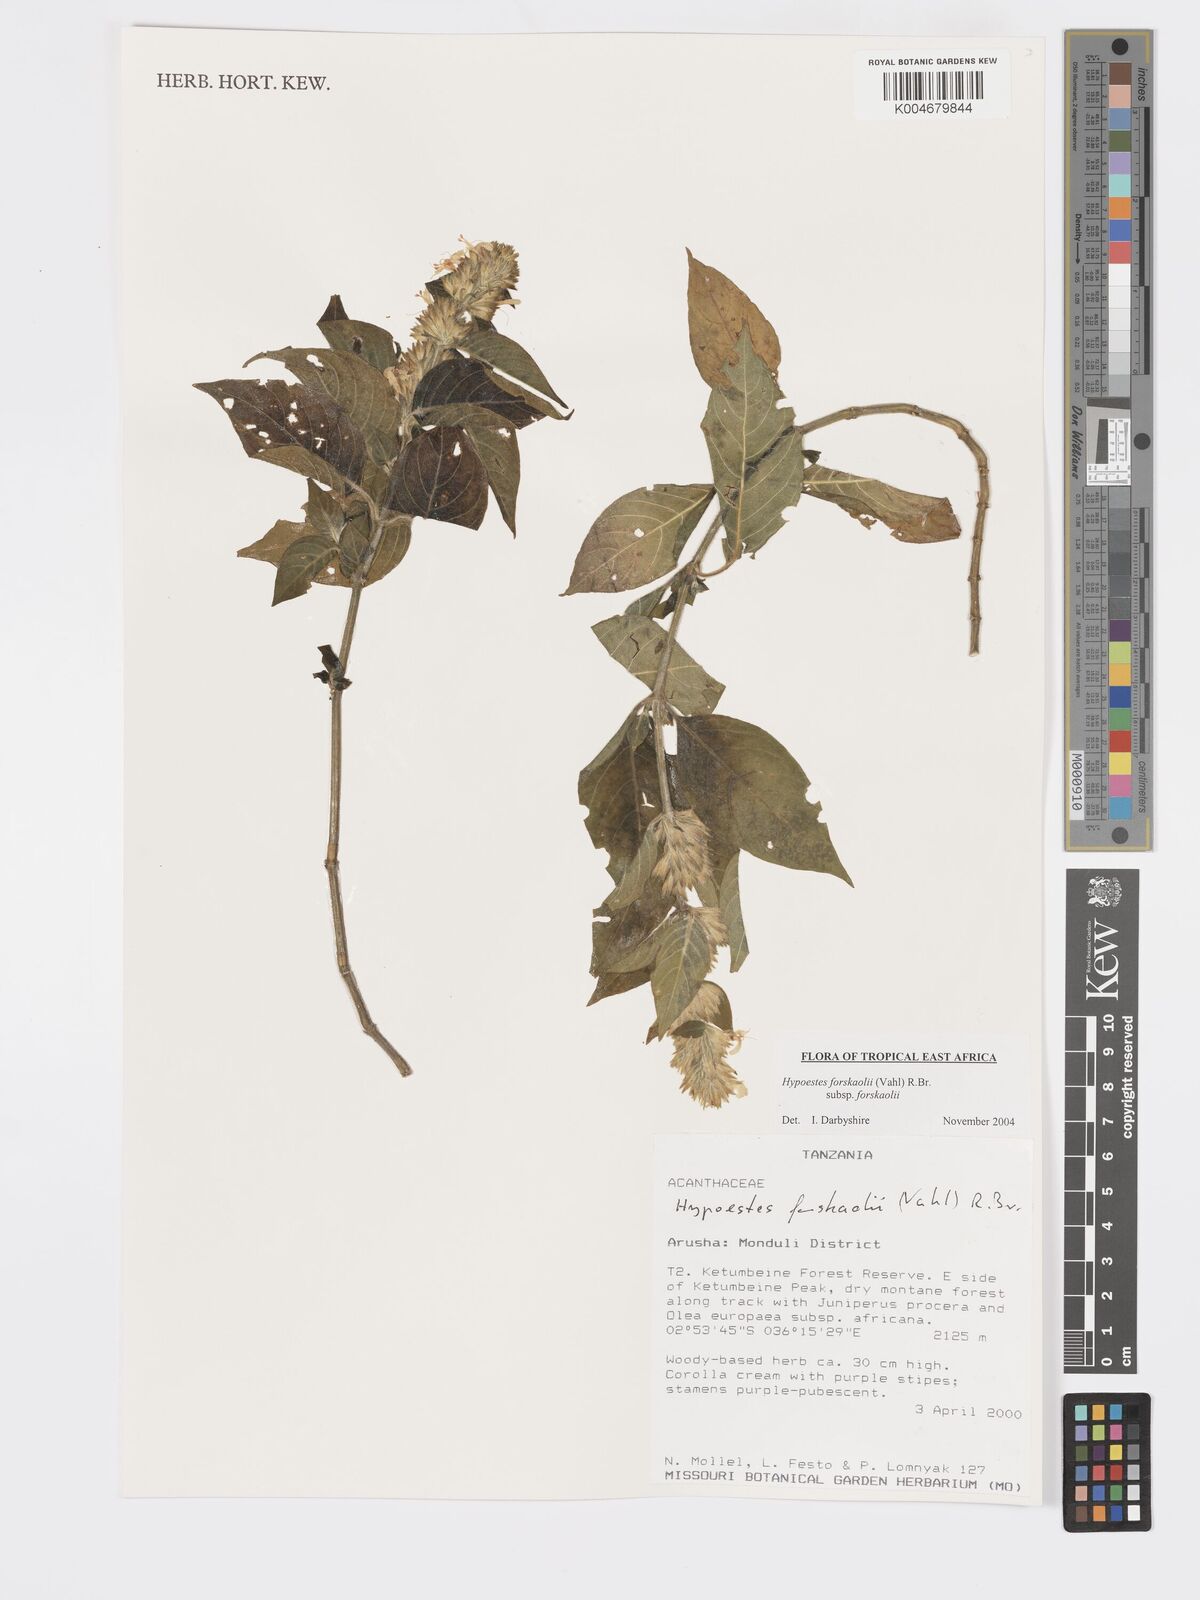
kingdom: Plantae
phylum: Tracheophyta
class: Magnoliopsida
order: Lamiales
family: Acanthaceae
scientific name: Acanthaceae
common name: Acanthaceae
